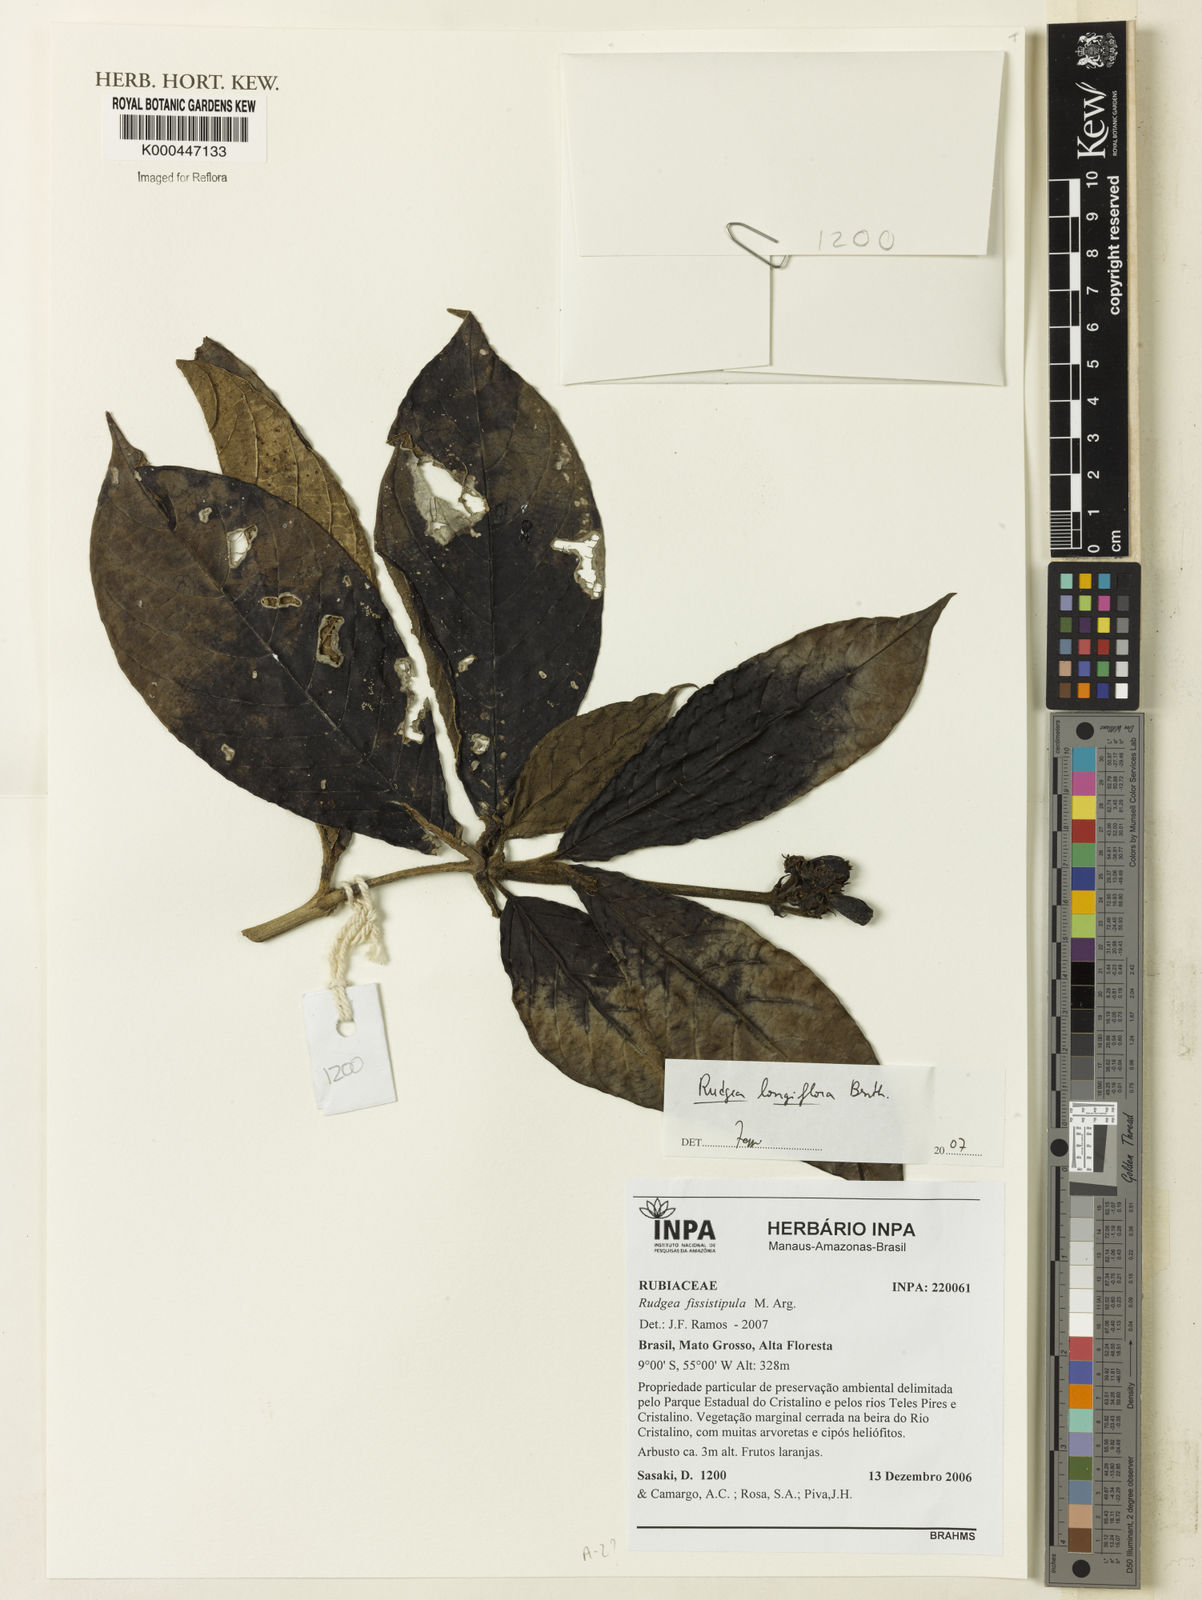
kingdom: Plantae
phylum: Tracheophyta
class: Magnoliopsida
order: Gentianales
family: Rubiaceae
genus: Rudgea
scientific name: Rudgea longiflora
